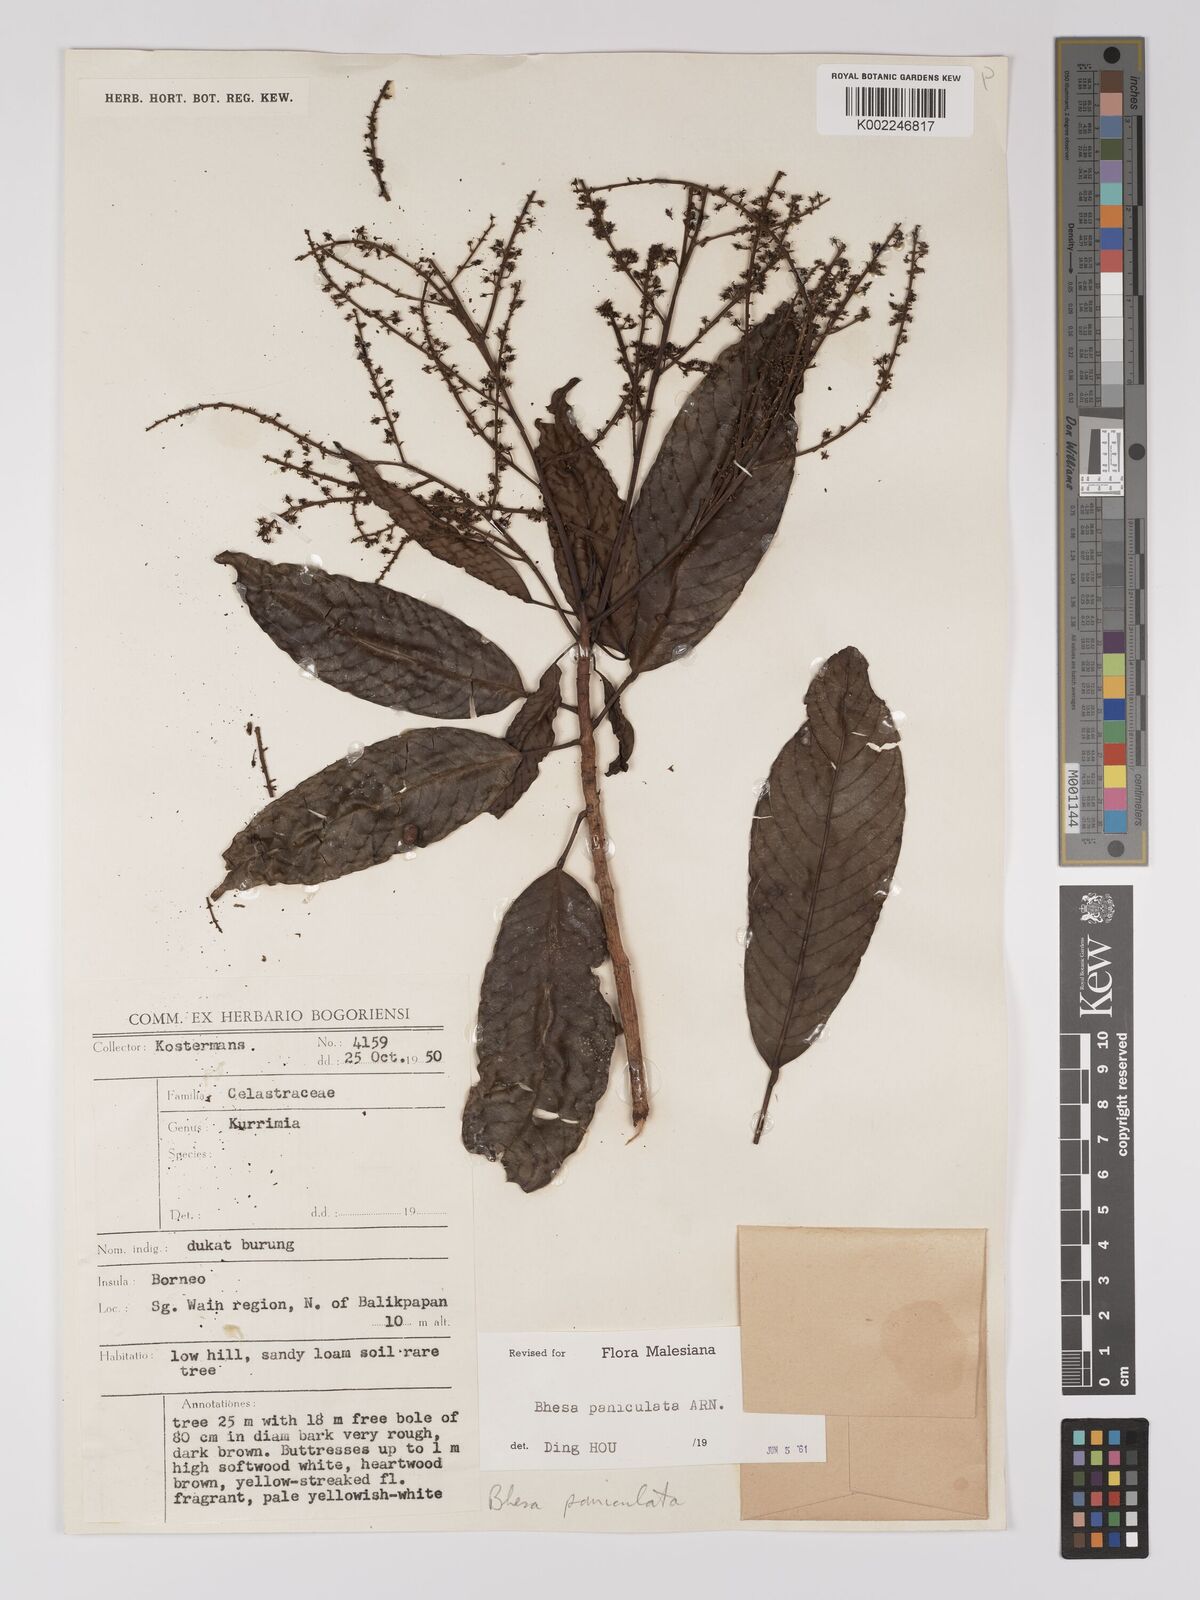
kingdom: Plantae
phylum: Tracheophyta
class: Magnoliopsida
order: Malpighiales
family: Centroplacaceae
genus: Bhesa
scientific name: Bhesa paniculata
